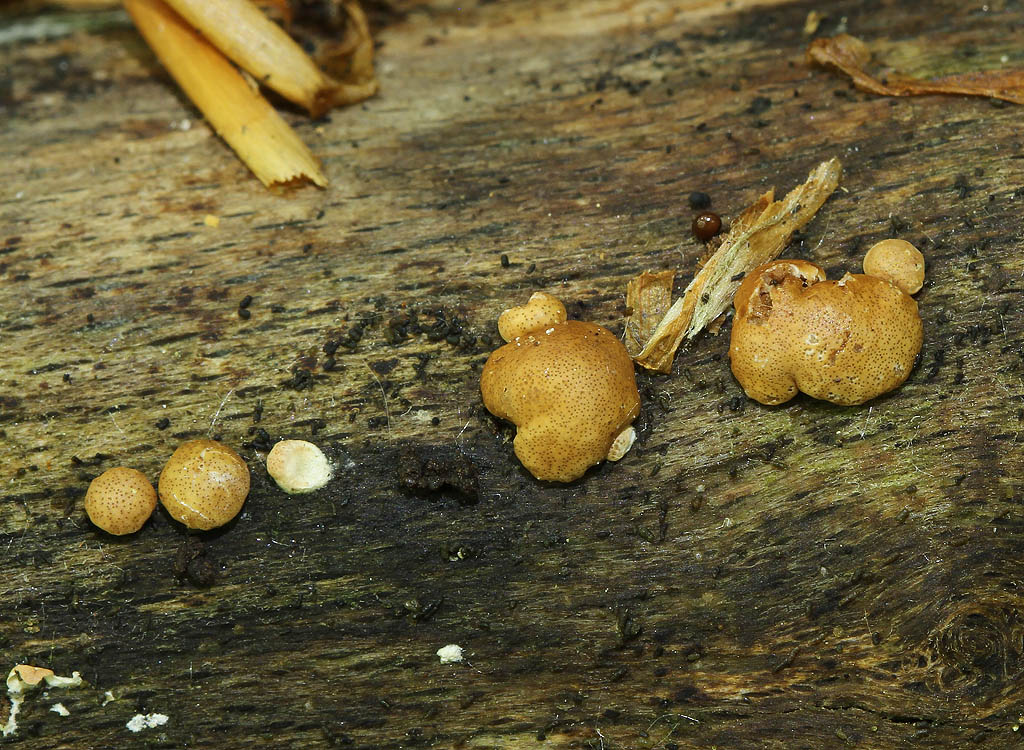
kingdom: Fungi
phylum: Ascomycota
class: Sordariomycetes
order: Hypocreales
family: Hypocreaceae
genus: Trichoderma
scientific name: Trichoderma europaeum
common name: rosabrun kødkerne
